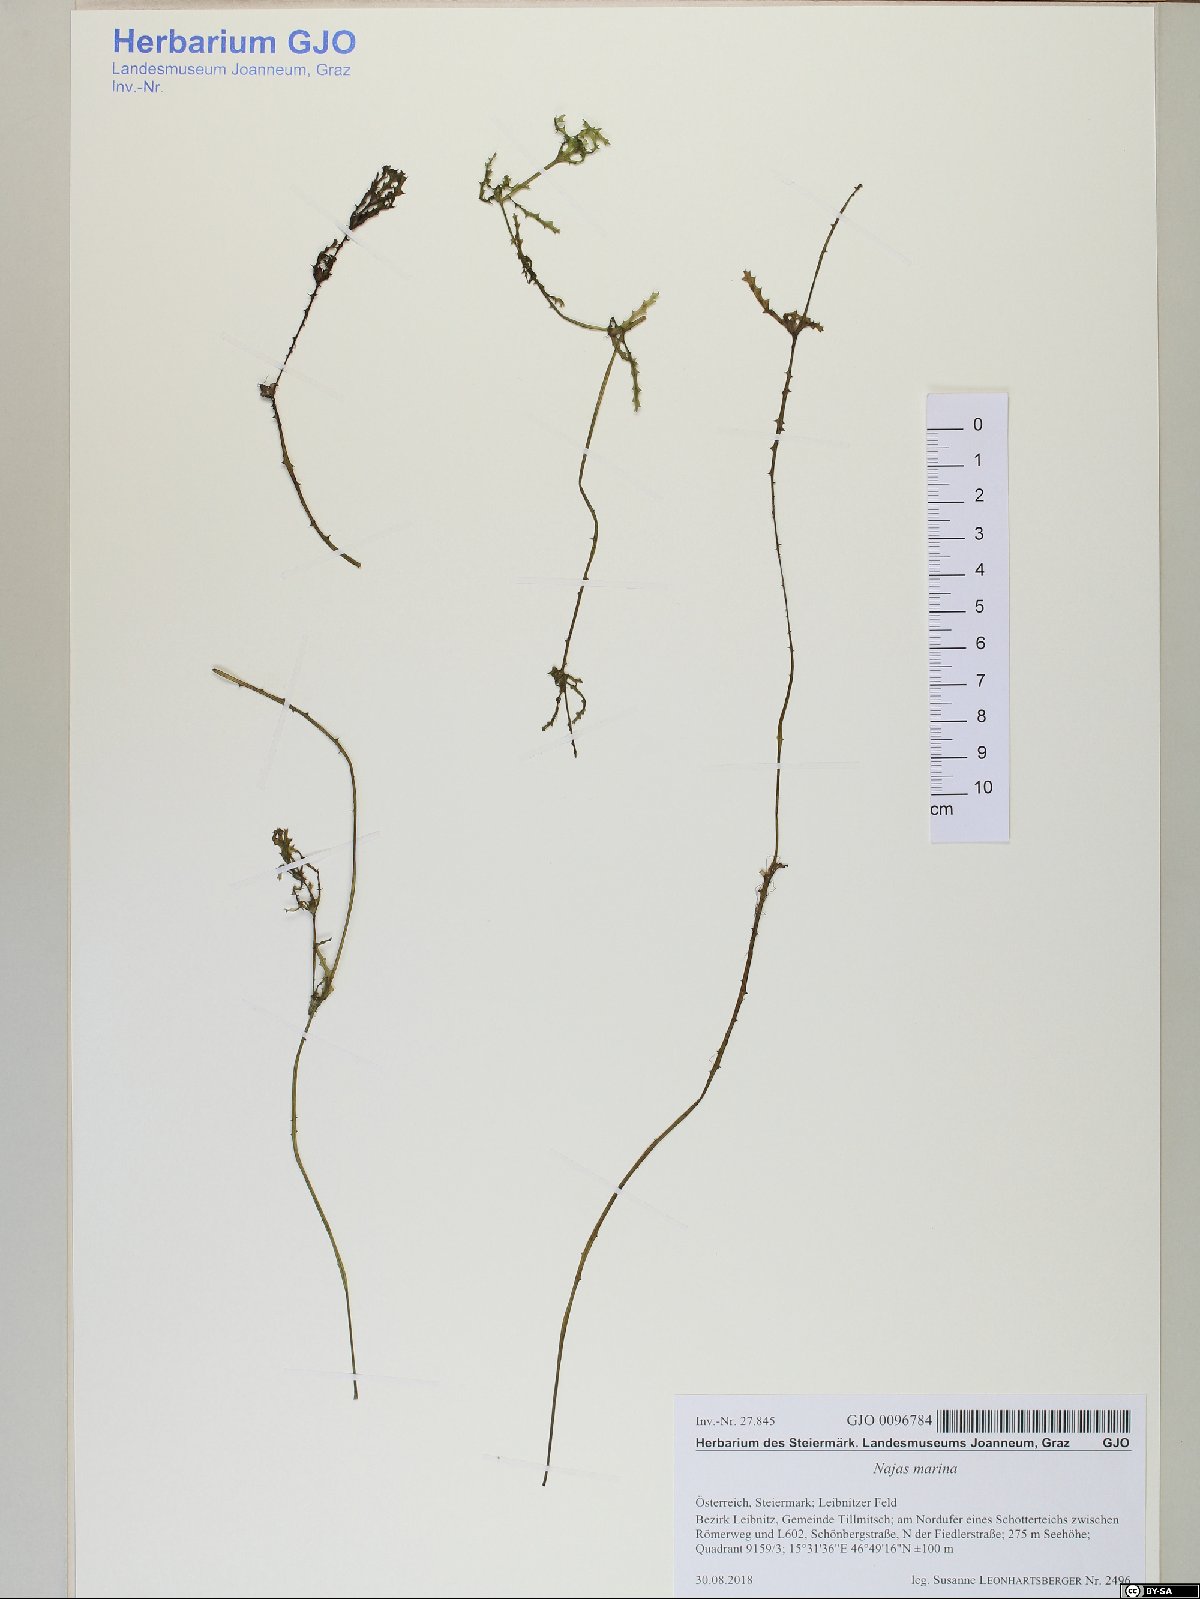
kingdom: Plantae
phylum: Tracheophyta
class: Liliopsida
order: Alismatales
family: Hydrocharitaceae
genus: Najas
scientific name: Najas marina
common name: Holly-leaved naiad
